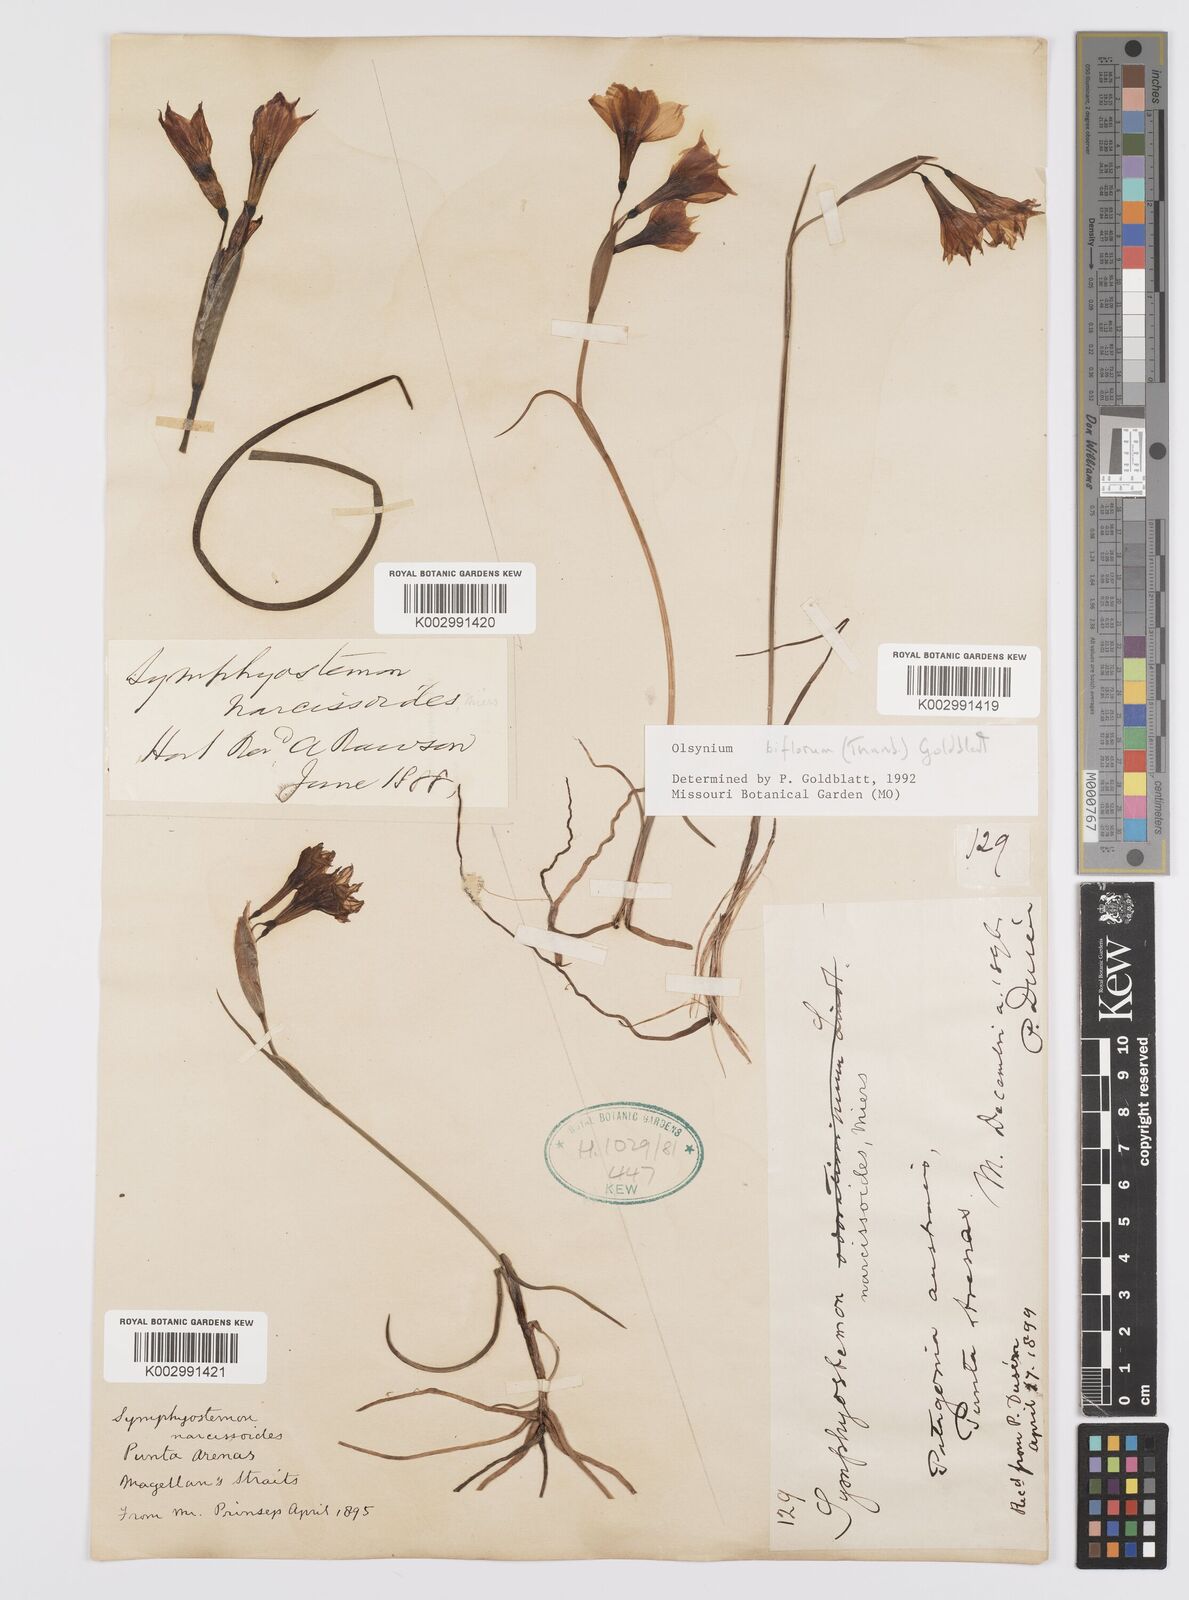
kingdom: Plantae
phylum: Tracheophyta
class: Liliopsida
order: Asparagales
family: Iridaceae
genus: Olsynium
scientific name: Olsynium biflorum
